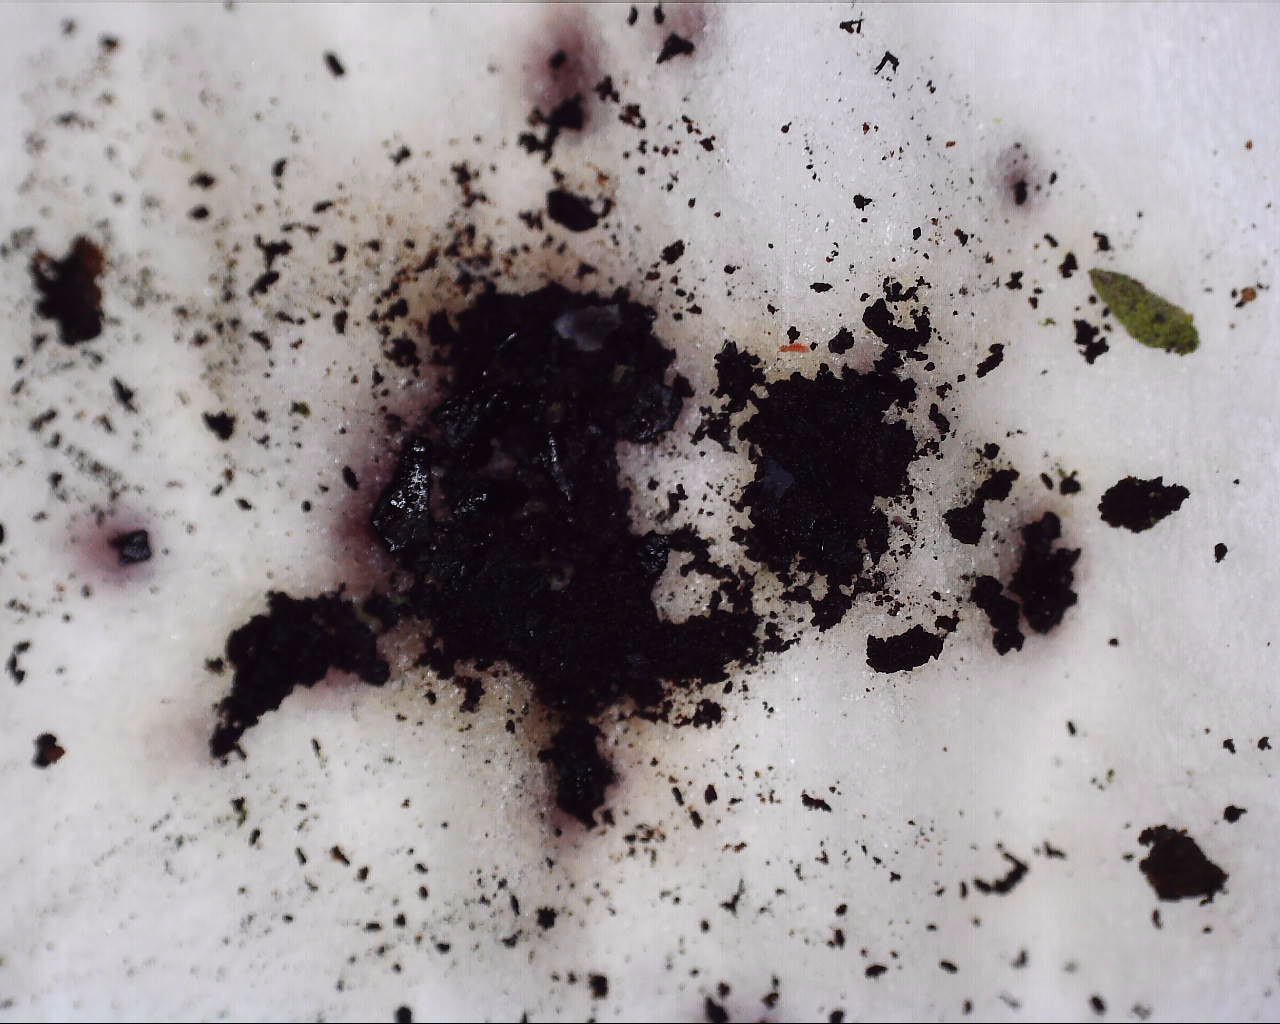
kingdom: Fungi
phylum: Ascomycota
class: Sordariomycetes
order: Xylariales
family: Hypoxylaceae
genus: Daldinia
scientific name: Daldinia
